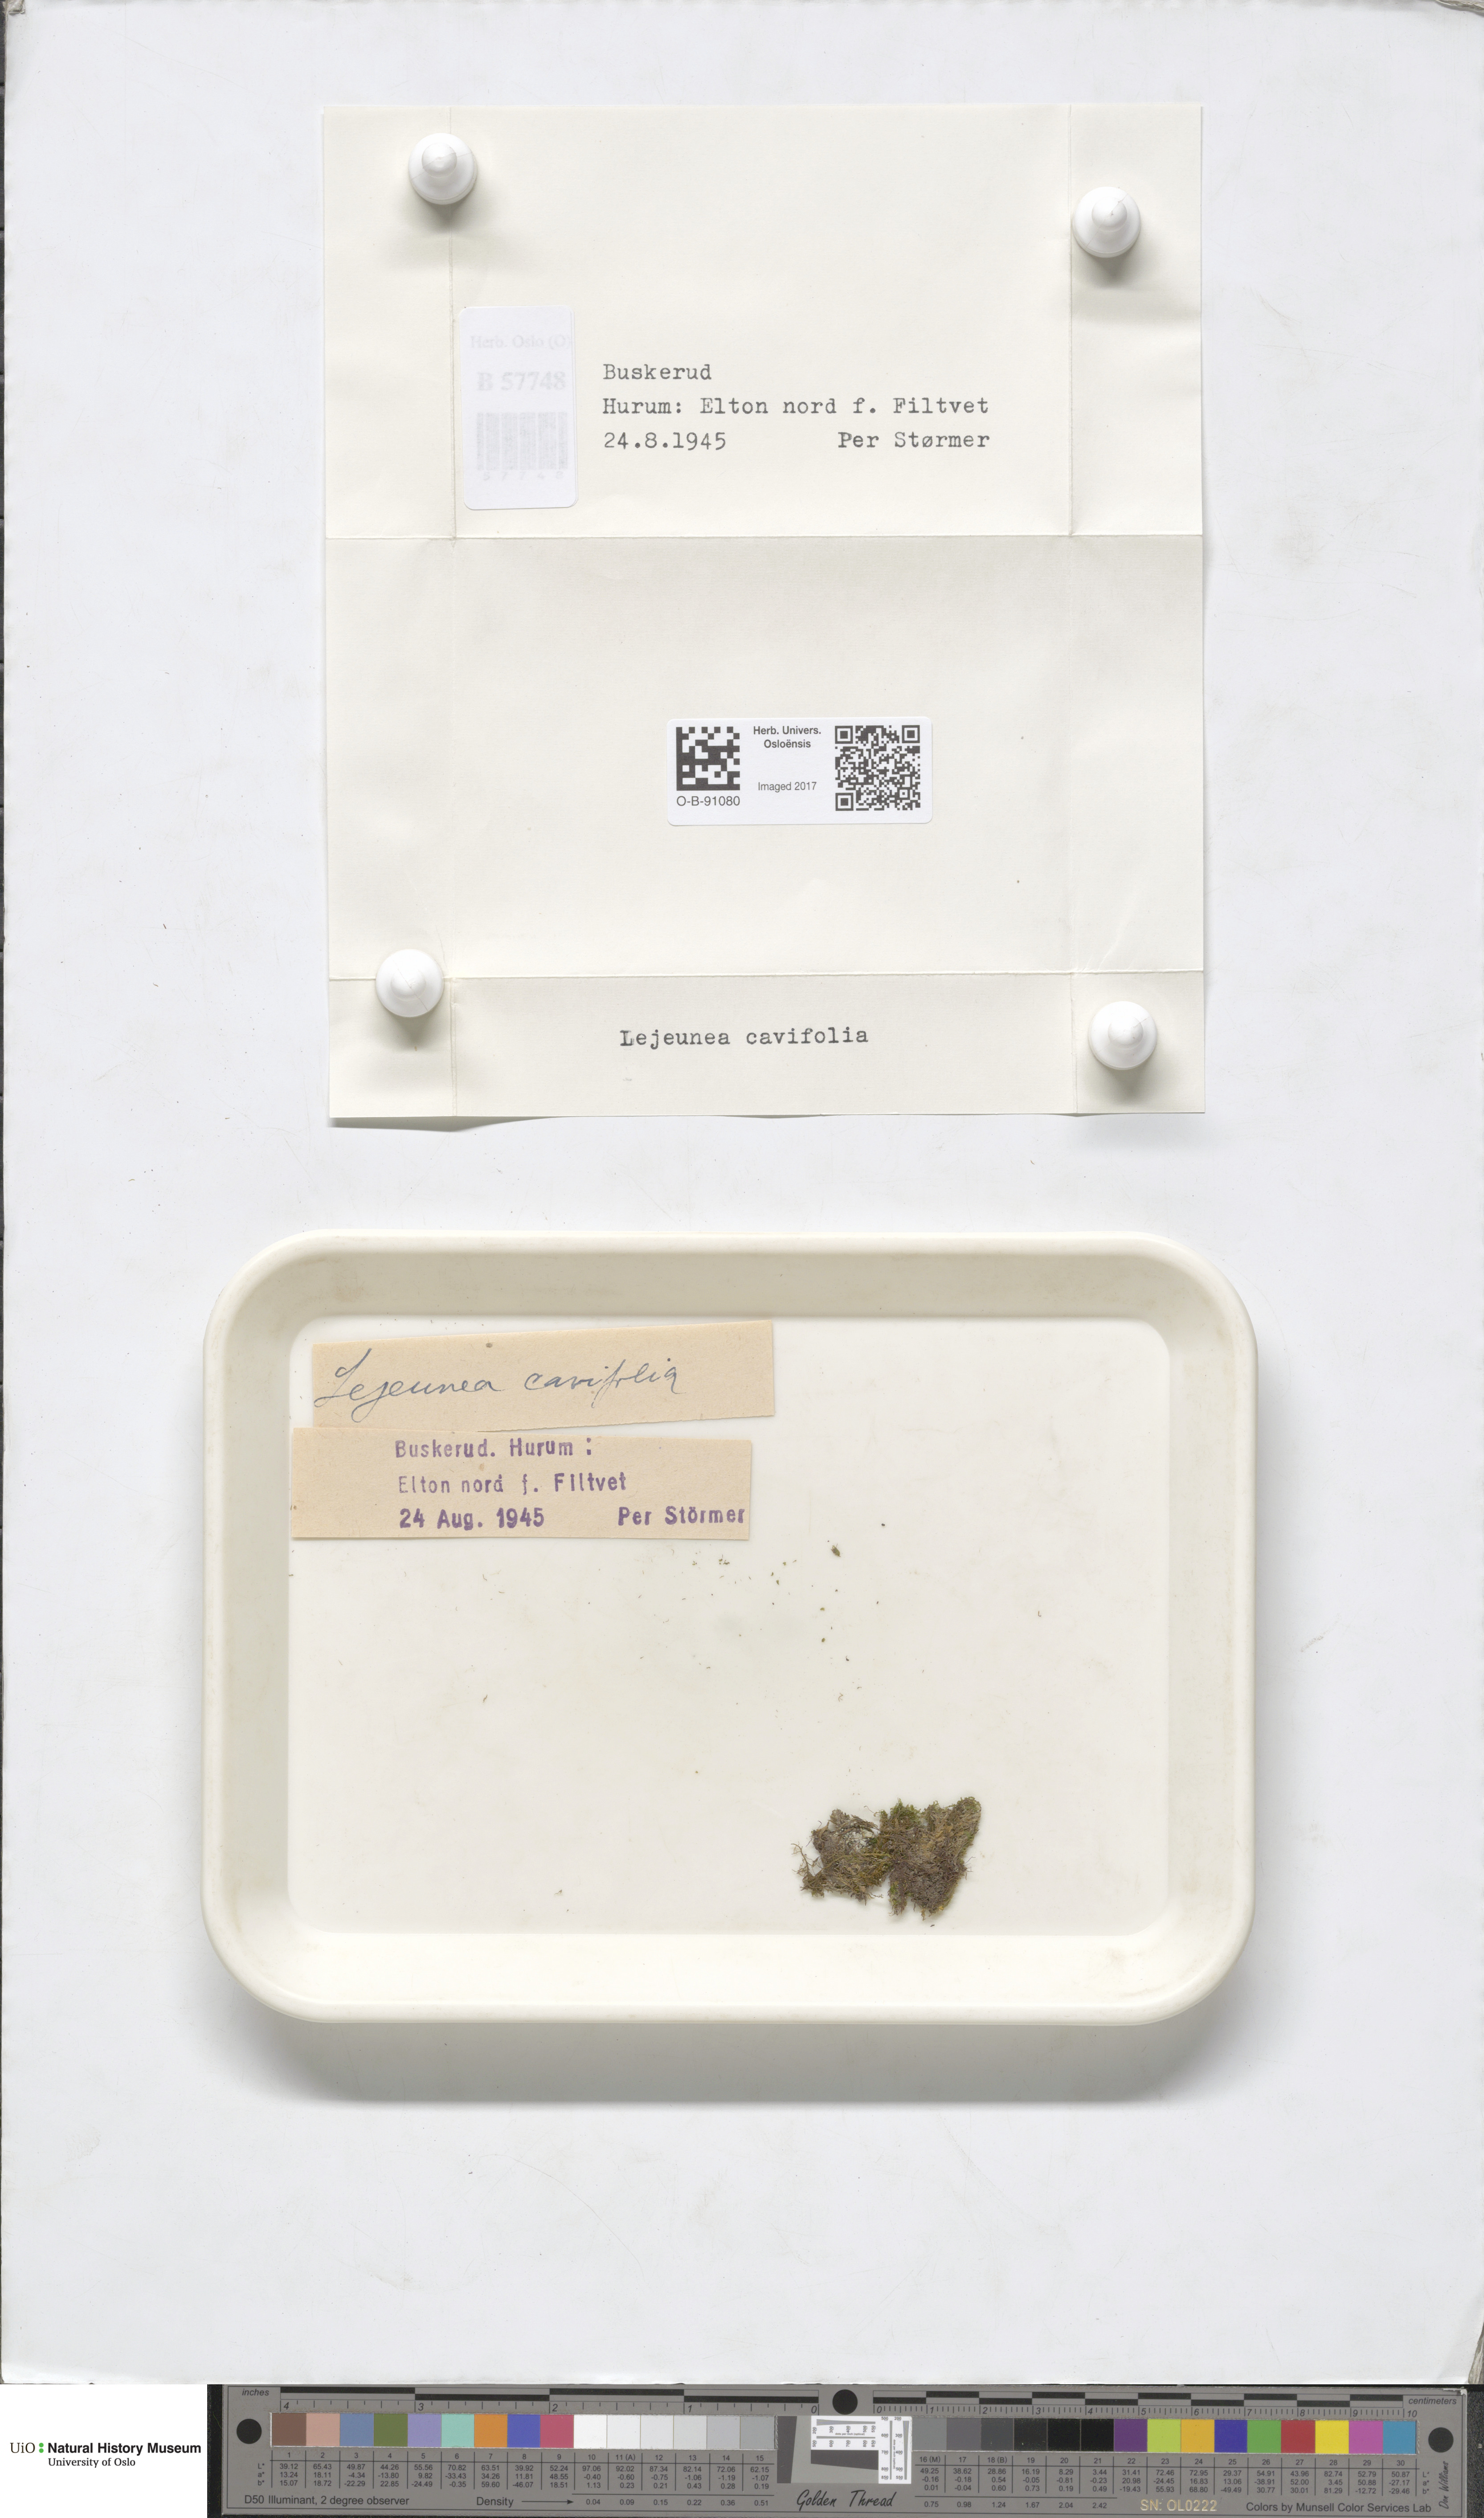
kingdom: Plantae
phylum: Marchantiophyta
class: Jungermanniopsida
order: Porellales
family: Lejeuneaceae
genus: Lejeunea
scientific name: Lejeunea cavifolia
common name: Least pouncewort
